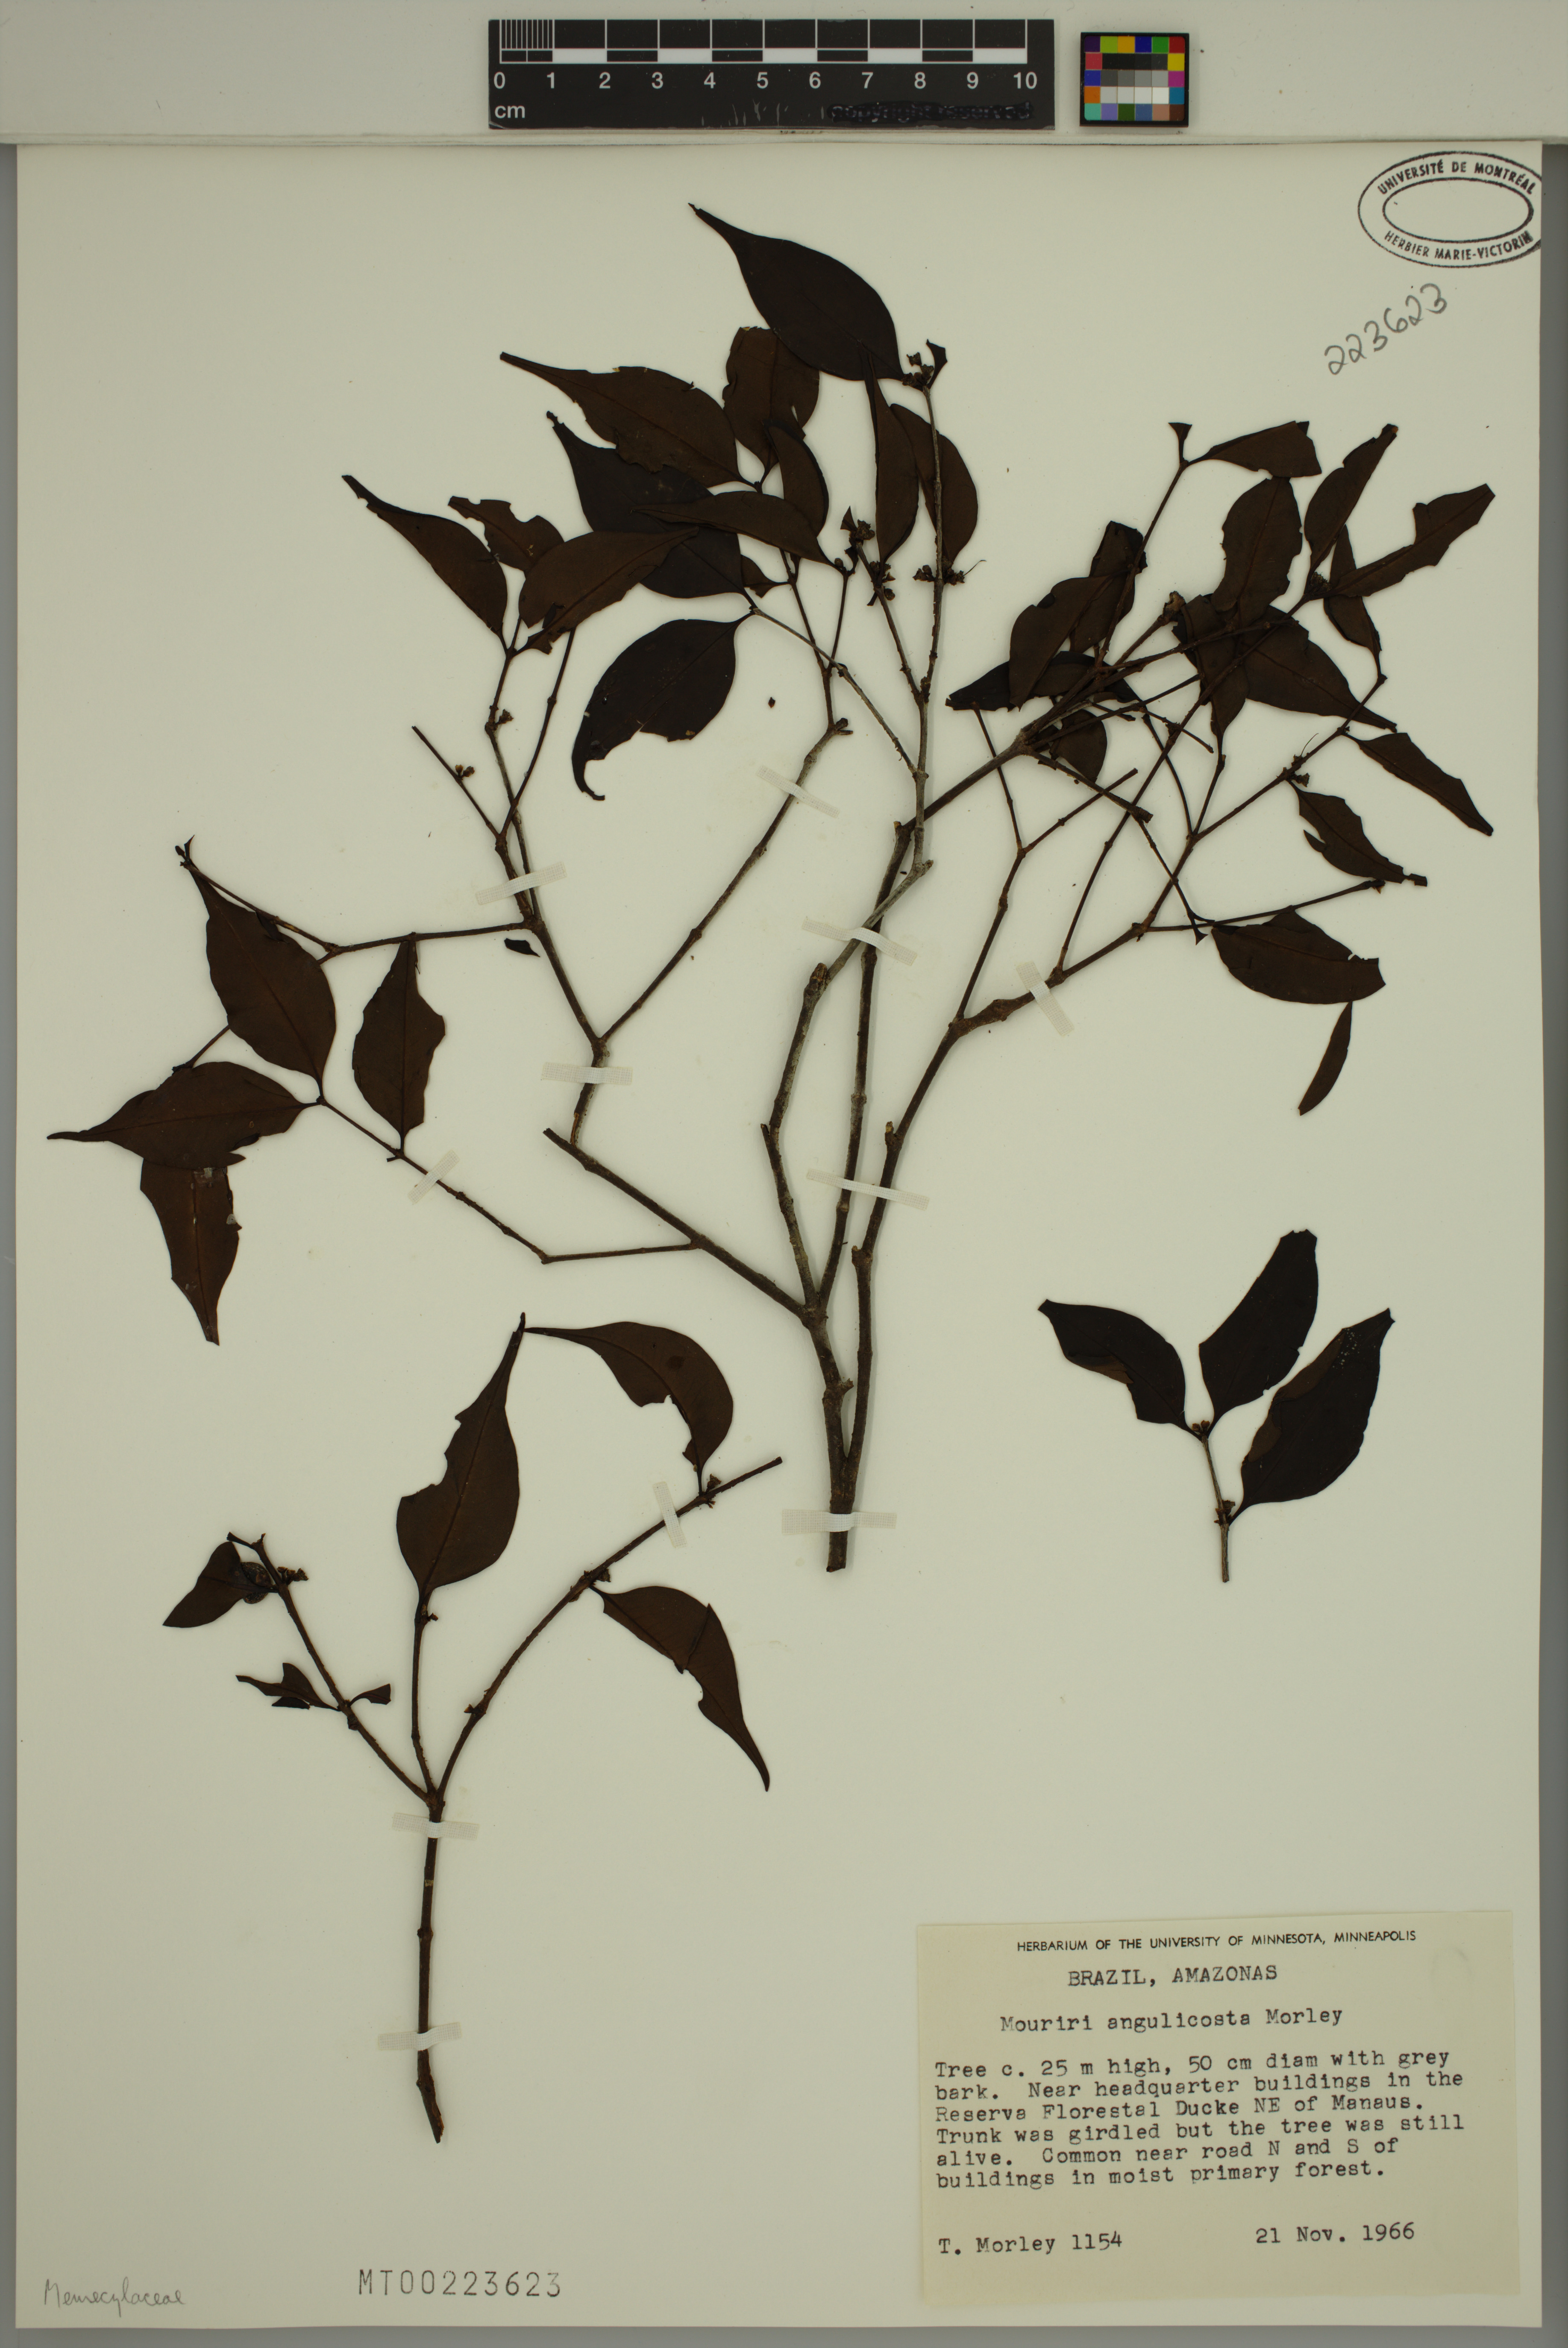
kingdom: Plantae
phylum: Tracheophyta
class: Magnoliopsida
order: Myrtales
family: Melastomataceae
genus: Mouriri
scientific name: Mouriri angulicosta
